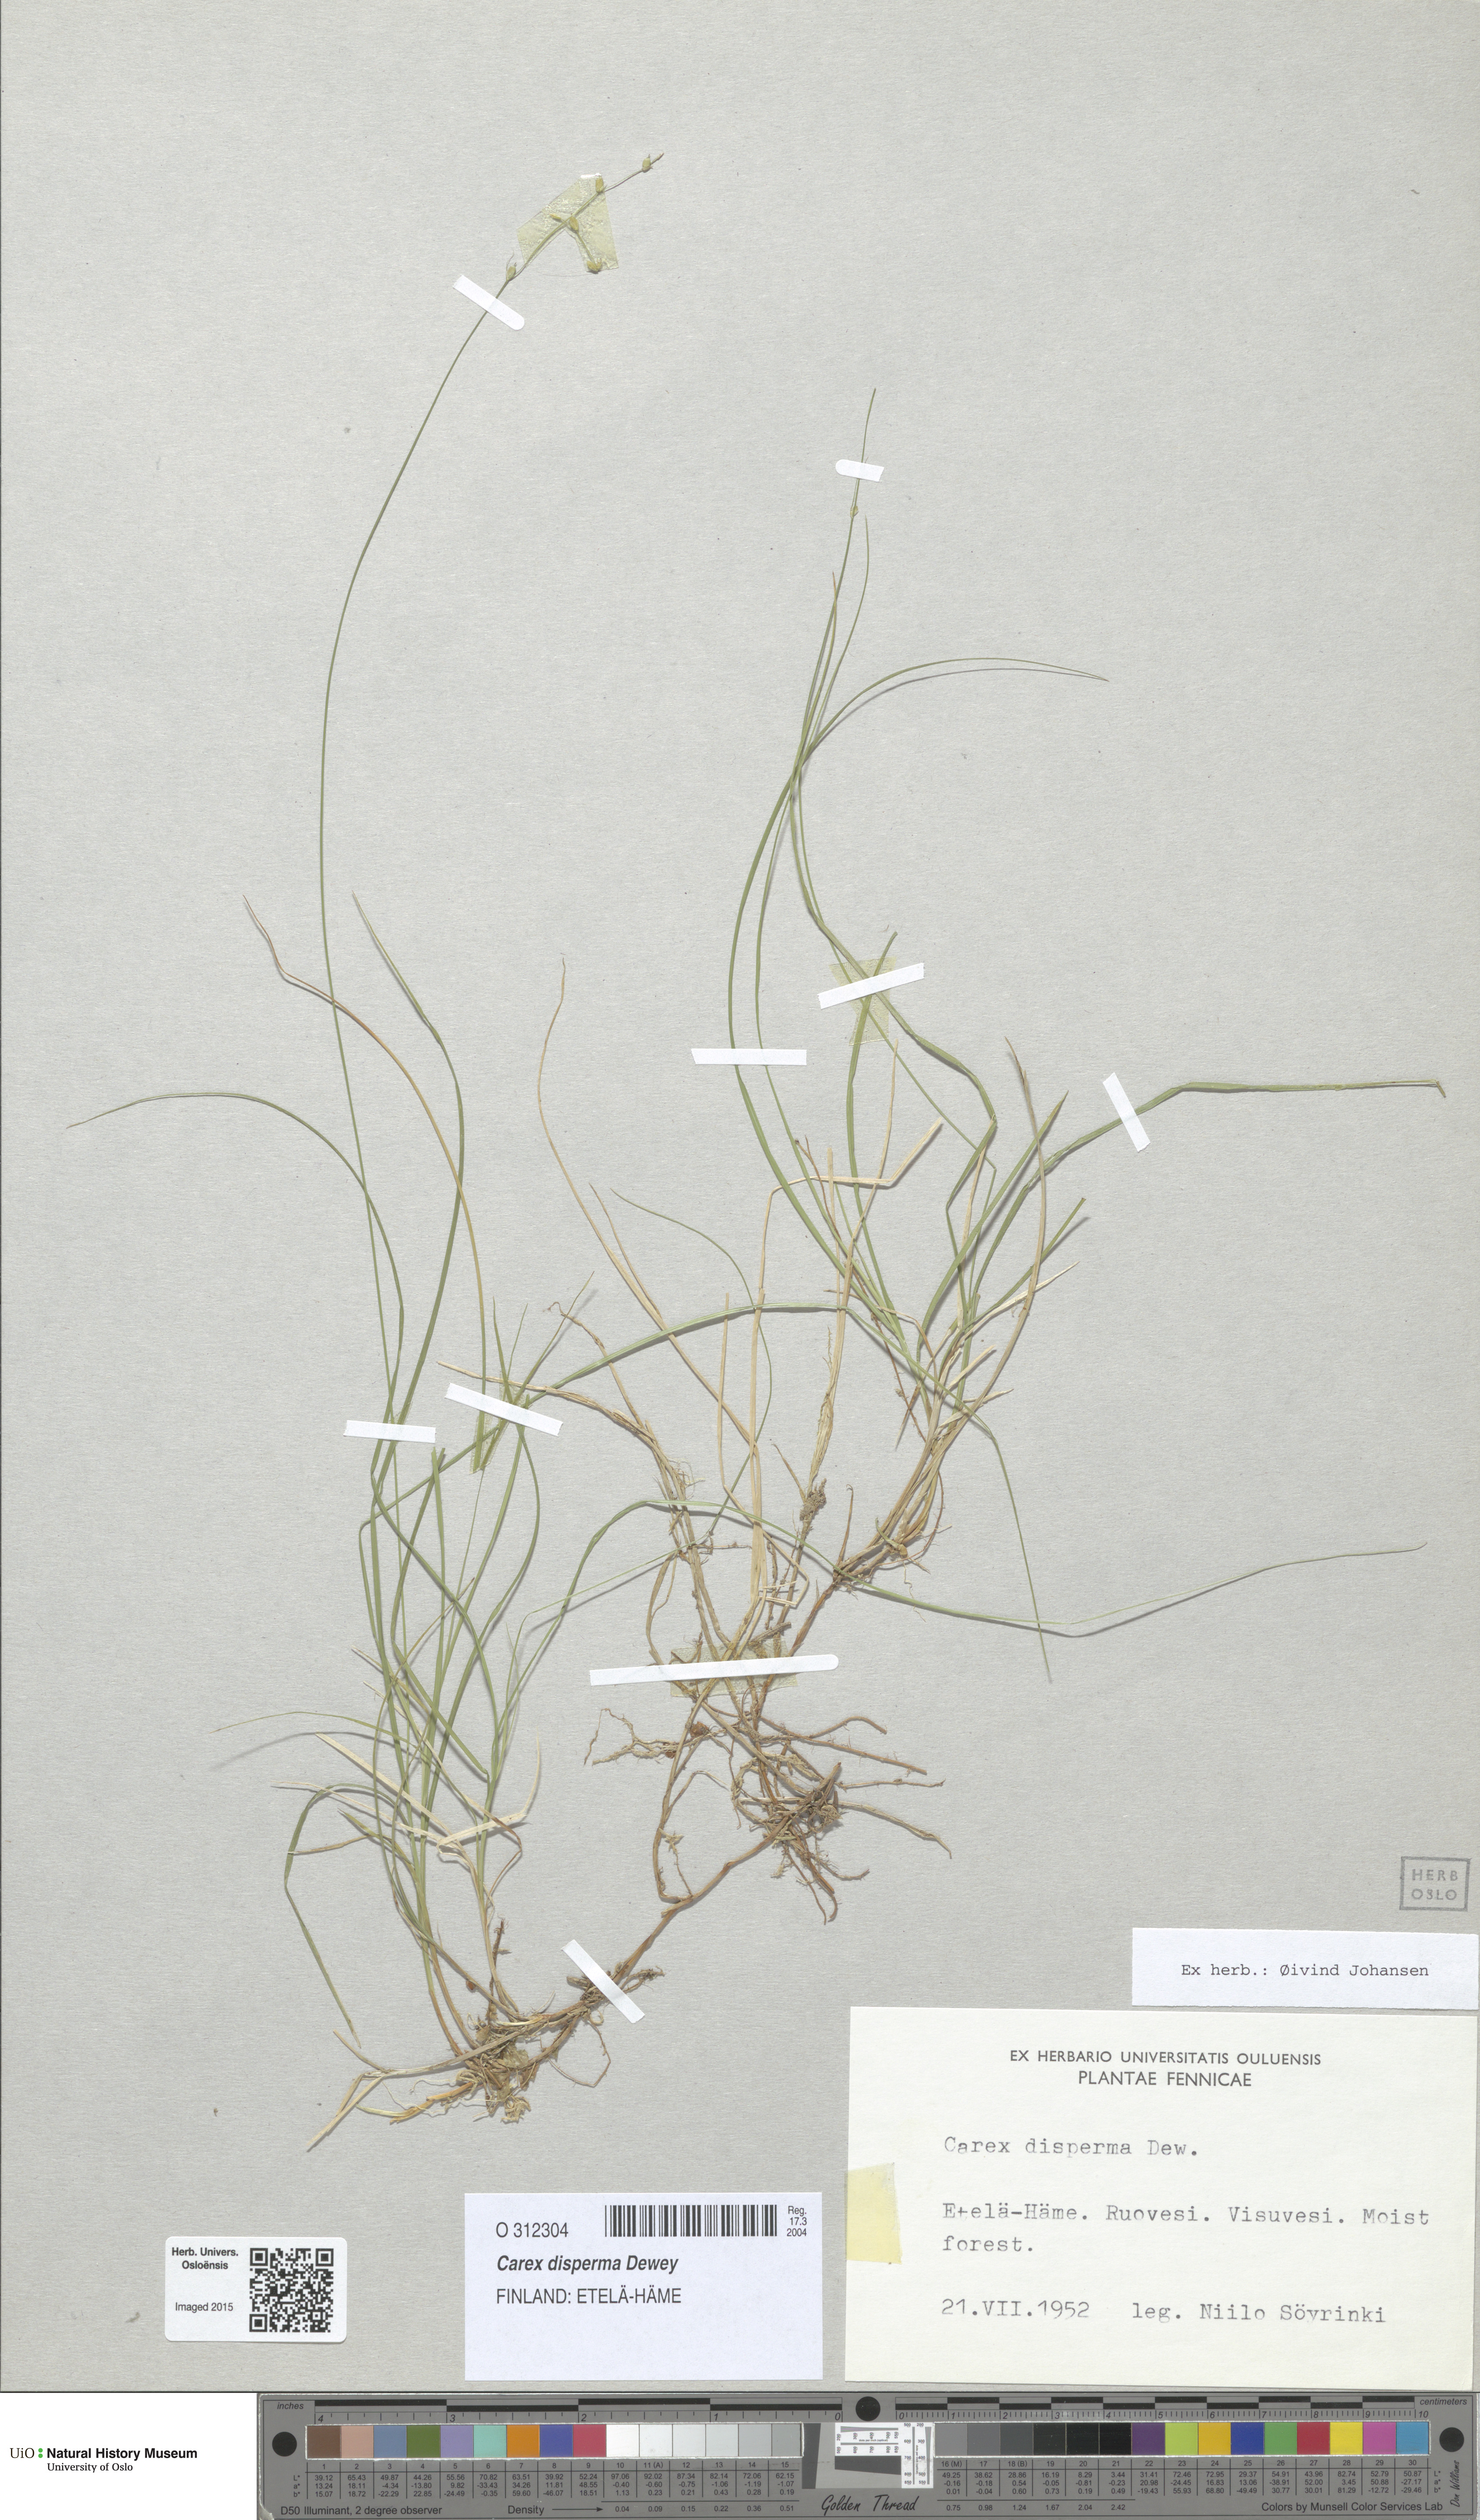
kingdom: Plantae
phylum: Tracheophyta
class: Liliopsida
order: Poales
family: Cyperaceae
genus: Carex
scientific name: Carex disperma
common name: Short-leaved sedge
